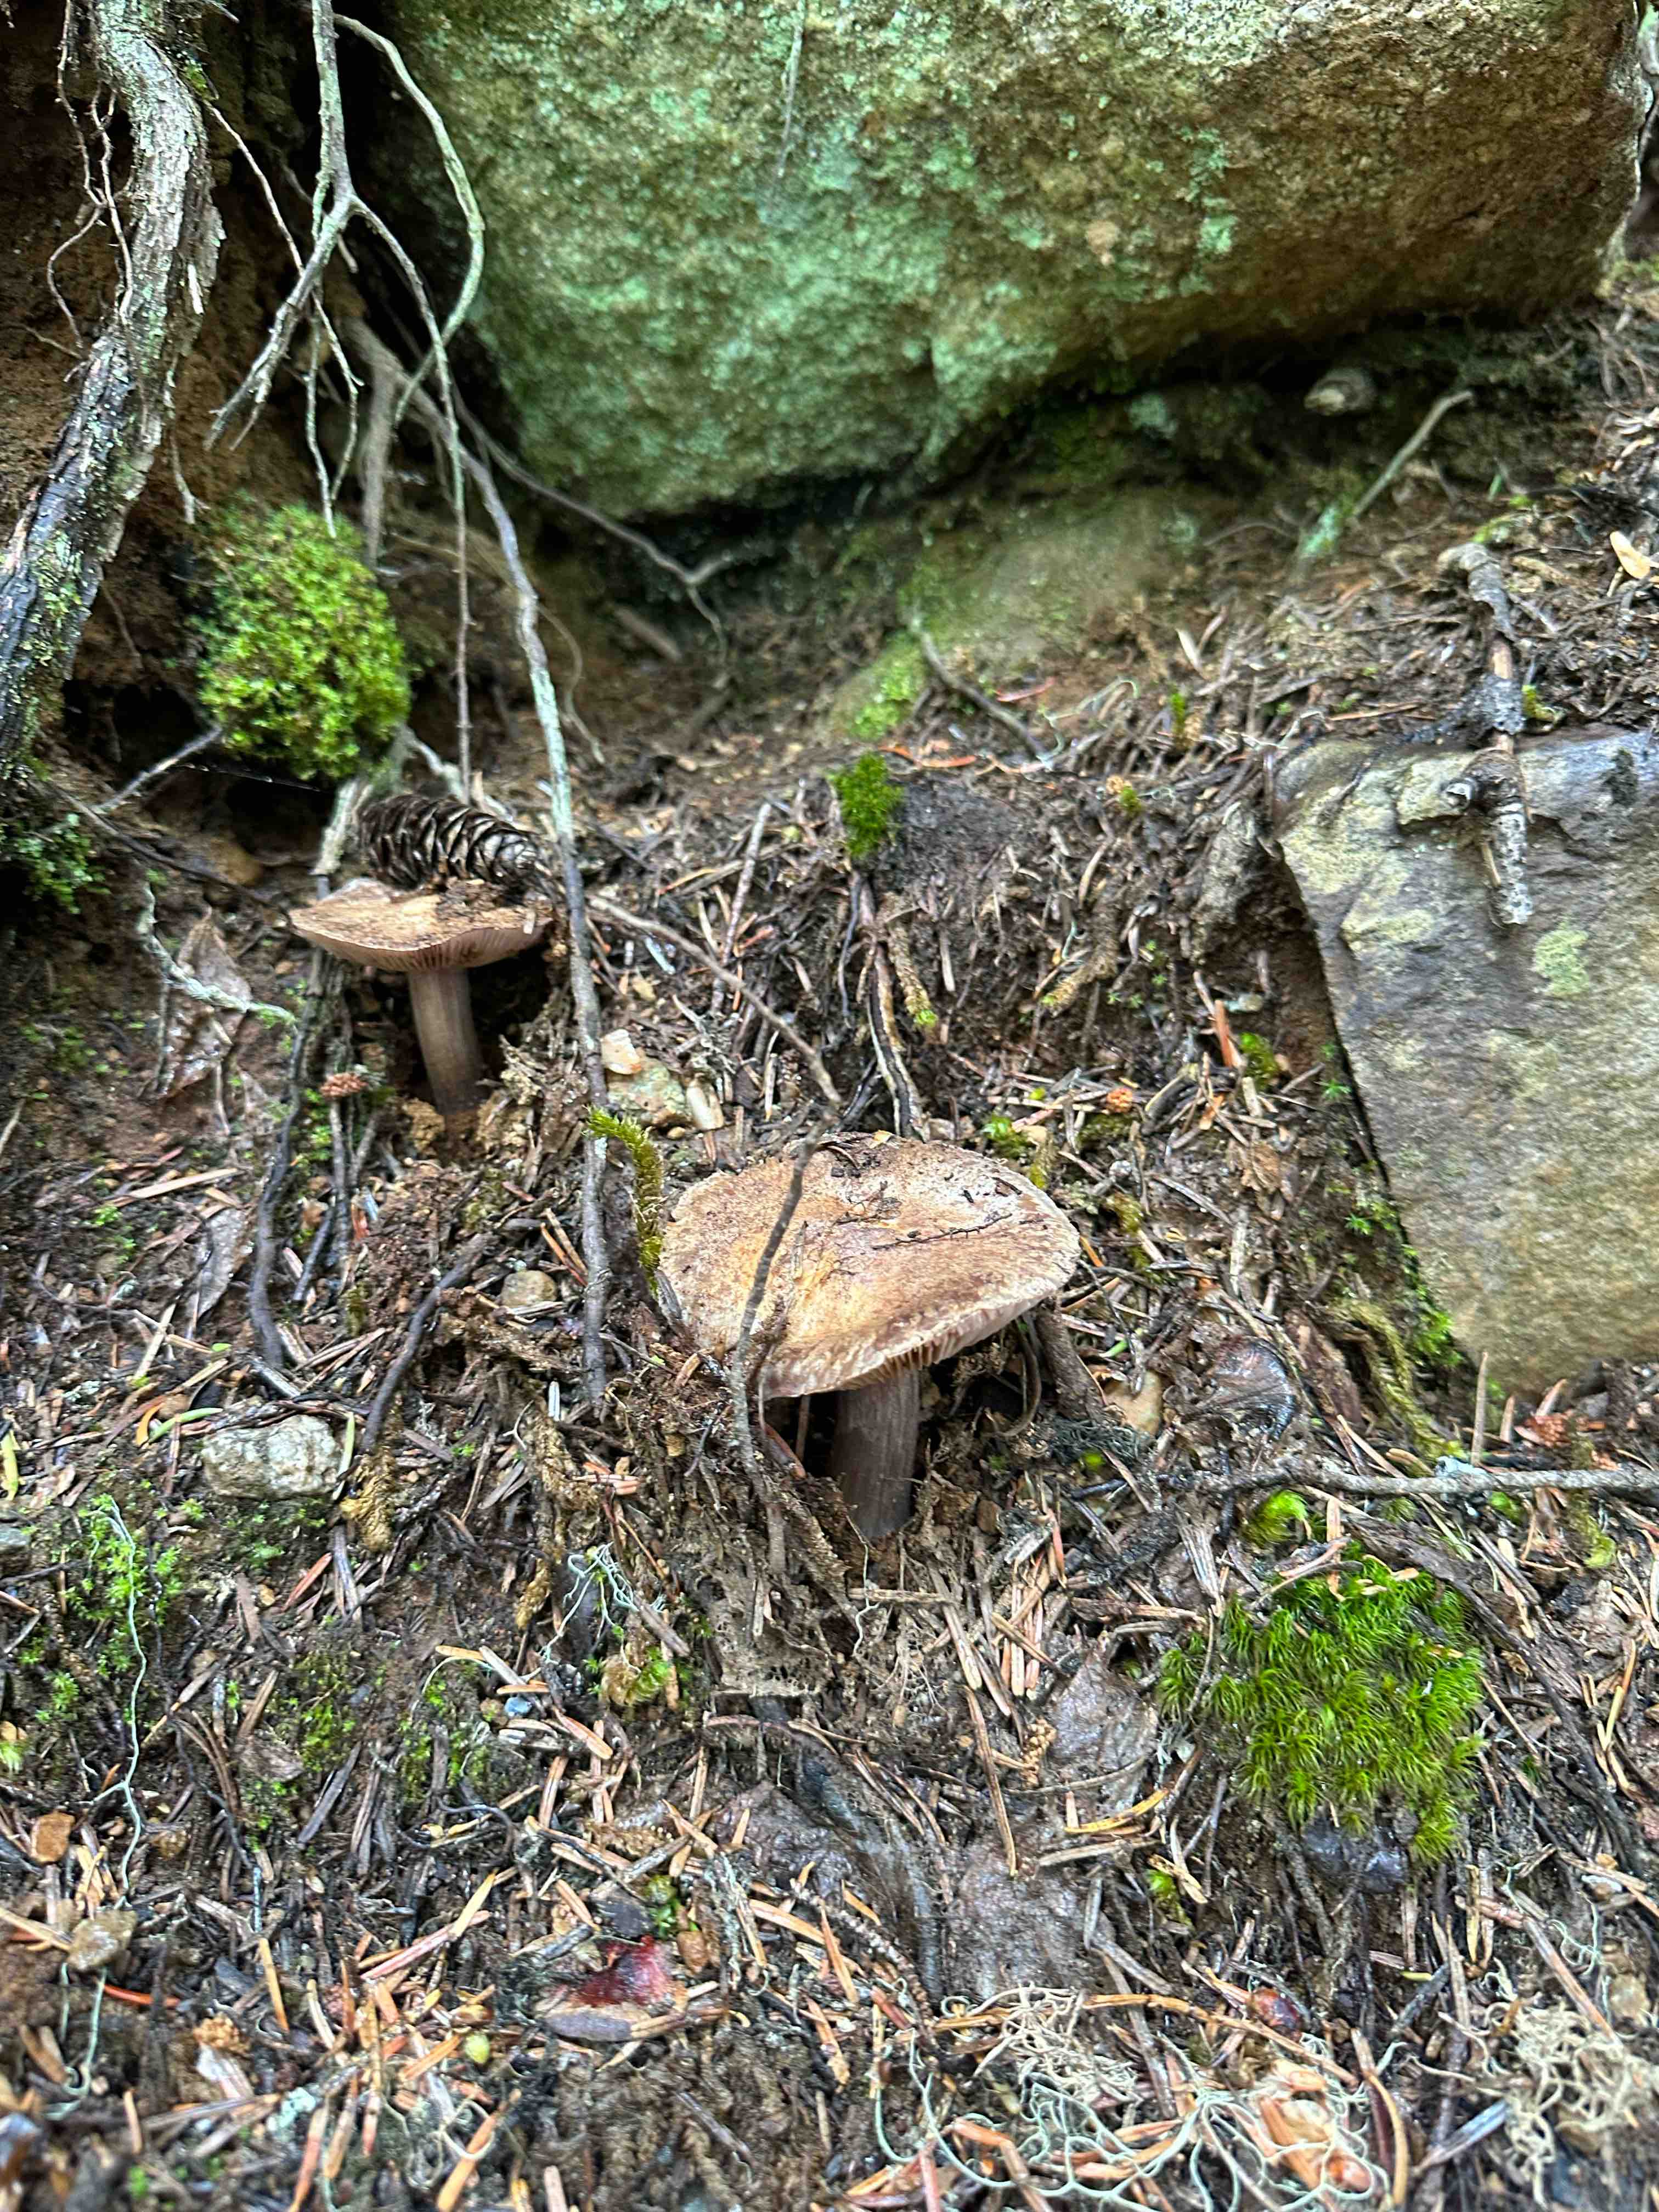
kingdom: Fungi
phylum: Basidiomycota
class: Agaricomycetes
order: Agaricales
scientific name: Agaricales
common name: champignonordenen
